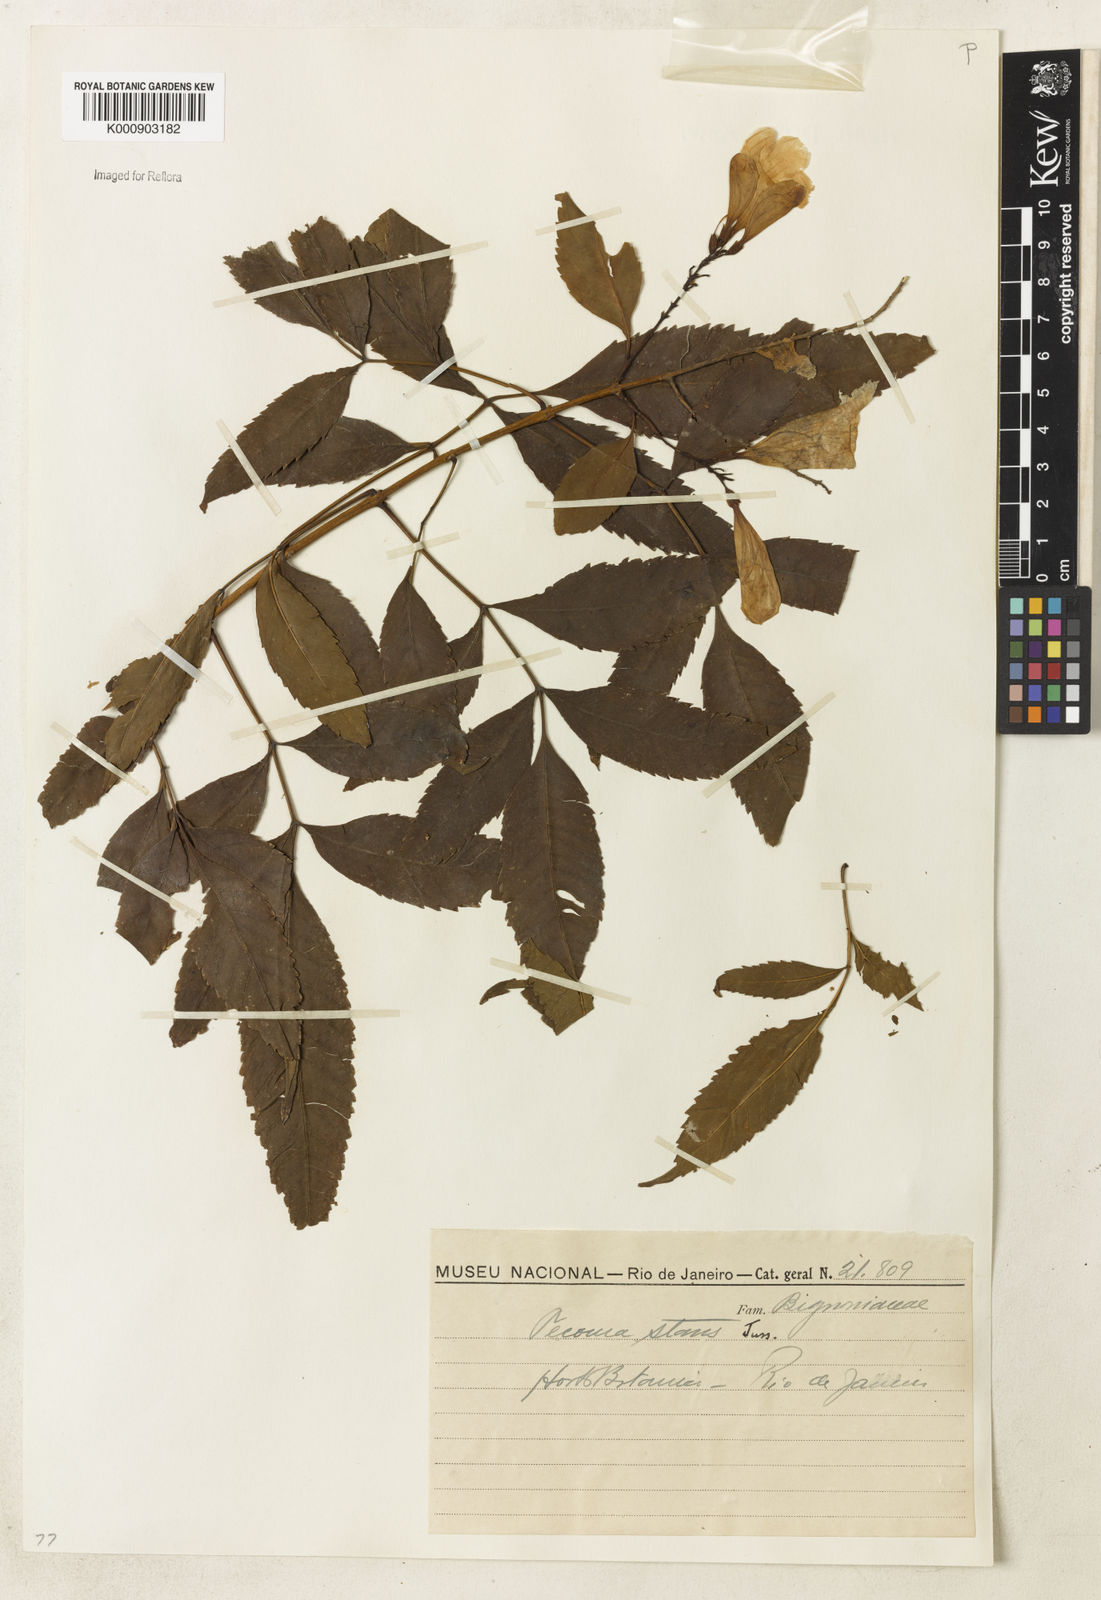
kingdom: Plantae
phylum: Tracheophyta
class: Magnoliopsida
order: Lamiales
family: Bignoniaceae
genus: Tecoma
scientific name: Tecoma stans
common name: Yellow trumpetbush
